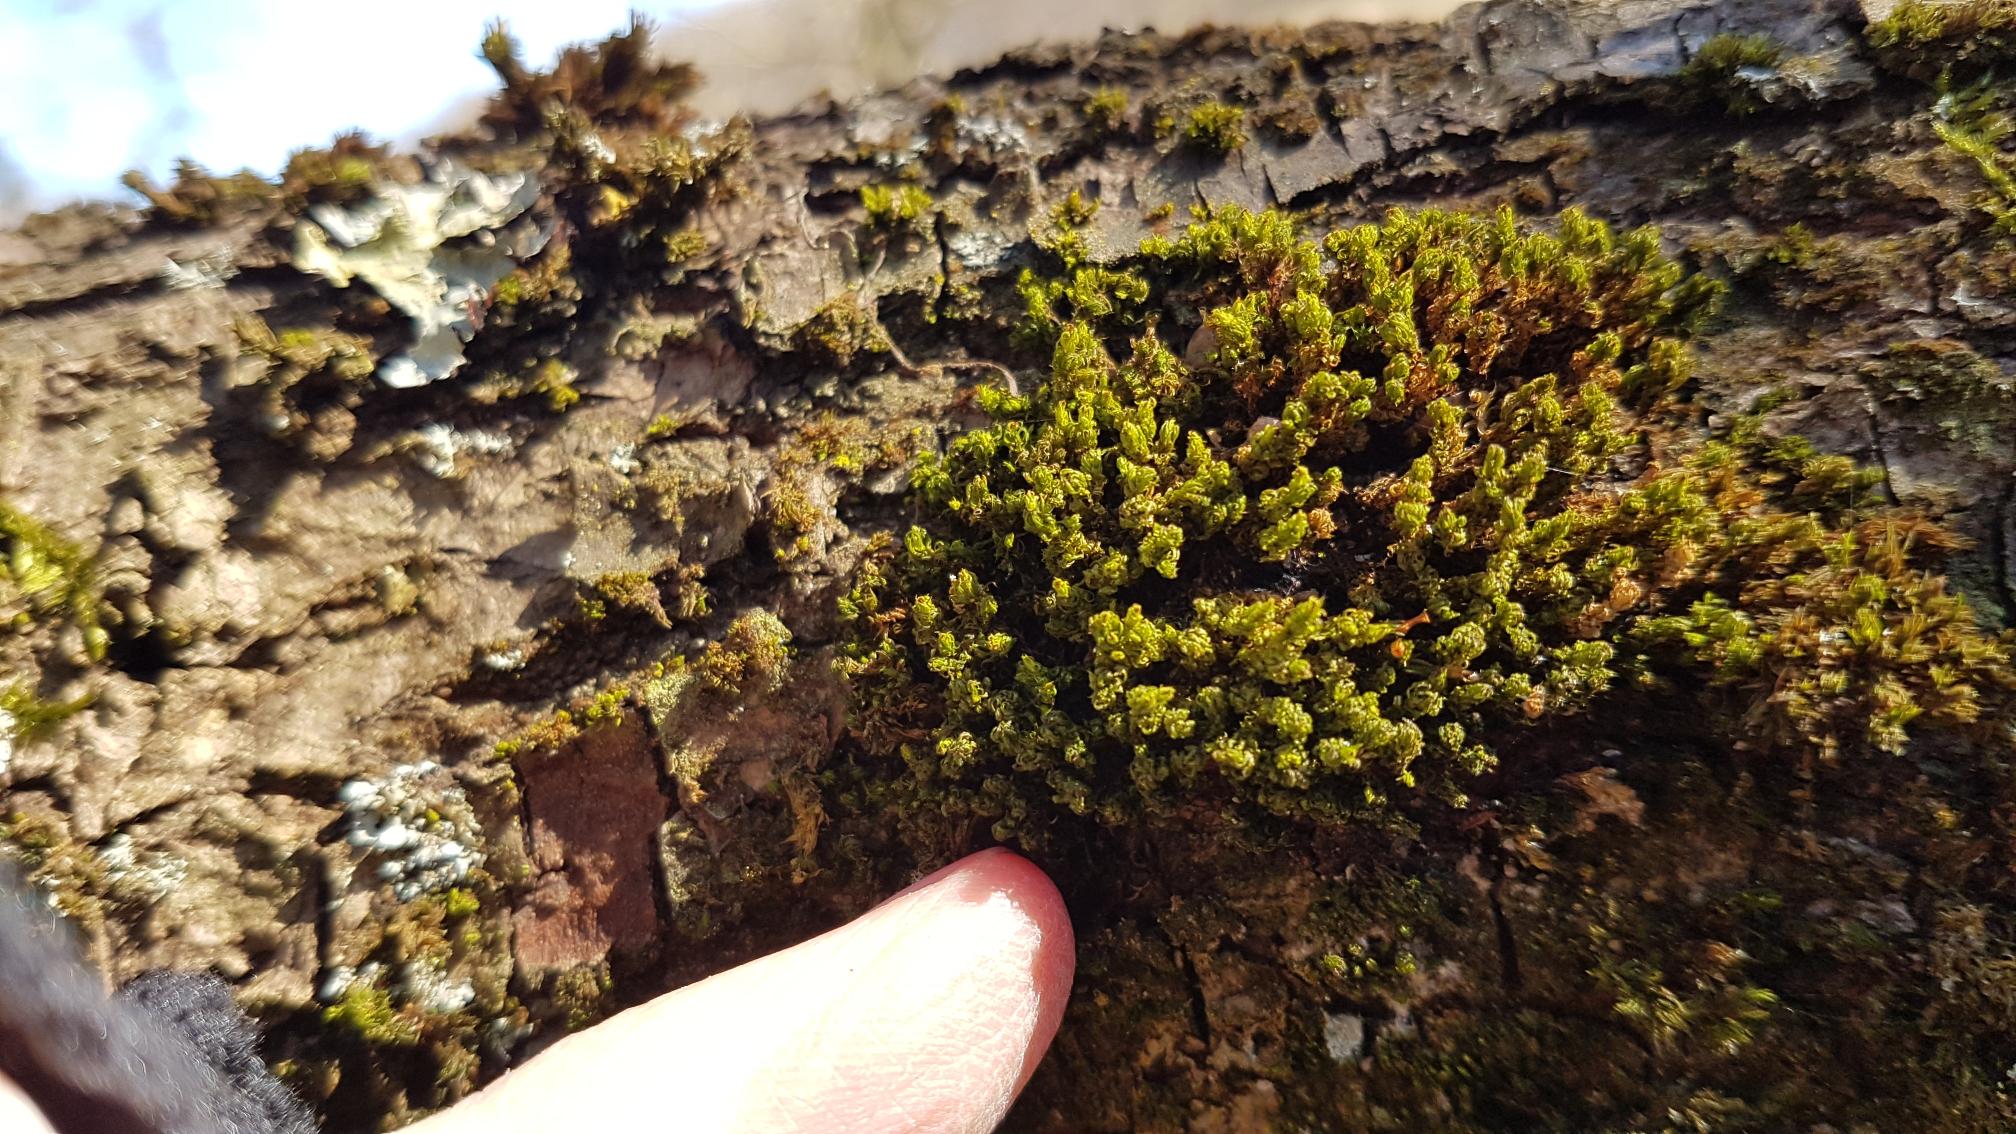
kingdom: Plantae
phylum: Bryophyta
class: Bryopsida
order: Orthotrichales
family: Orthotrichaceae
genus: Plenogemma
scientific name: Plenogemma phyllantha
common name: Stor låddenhætte
